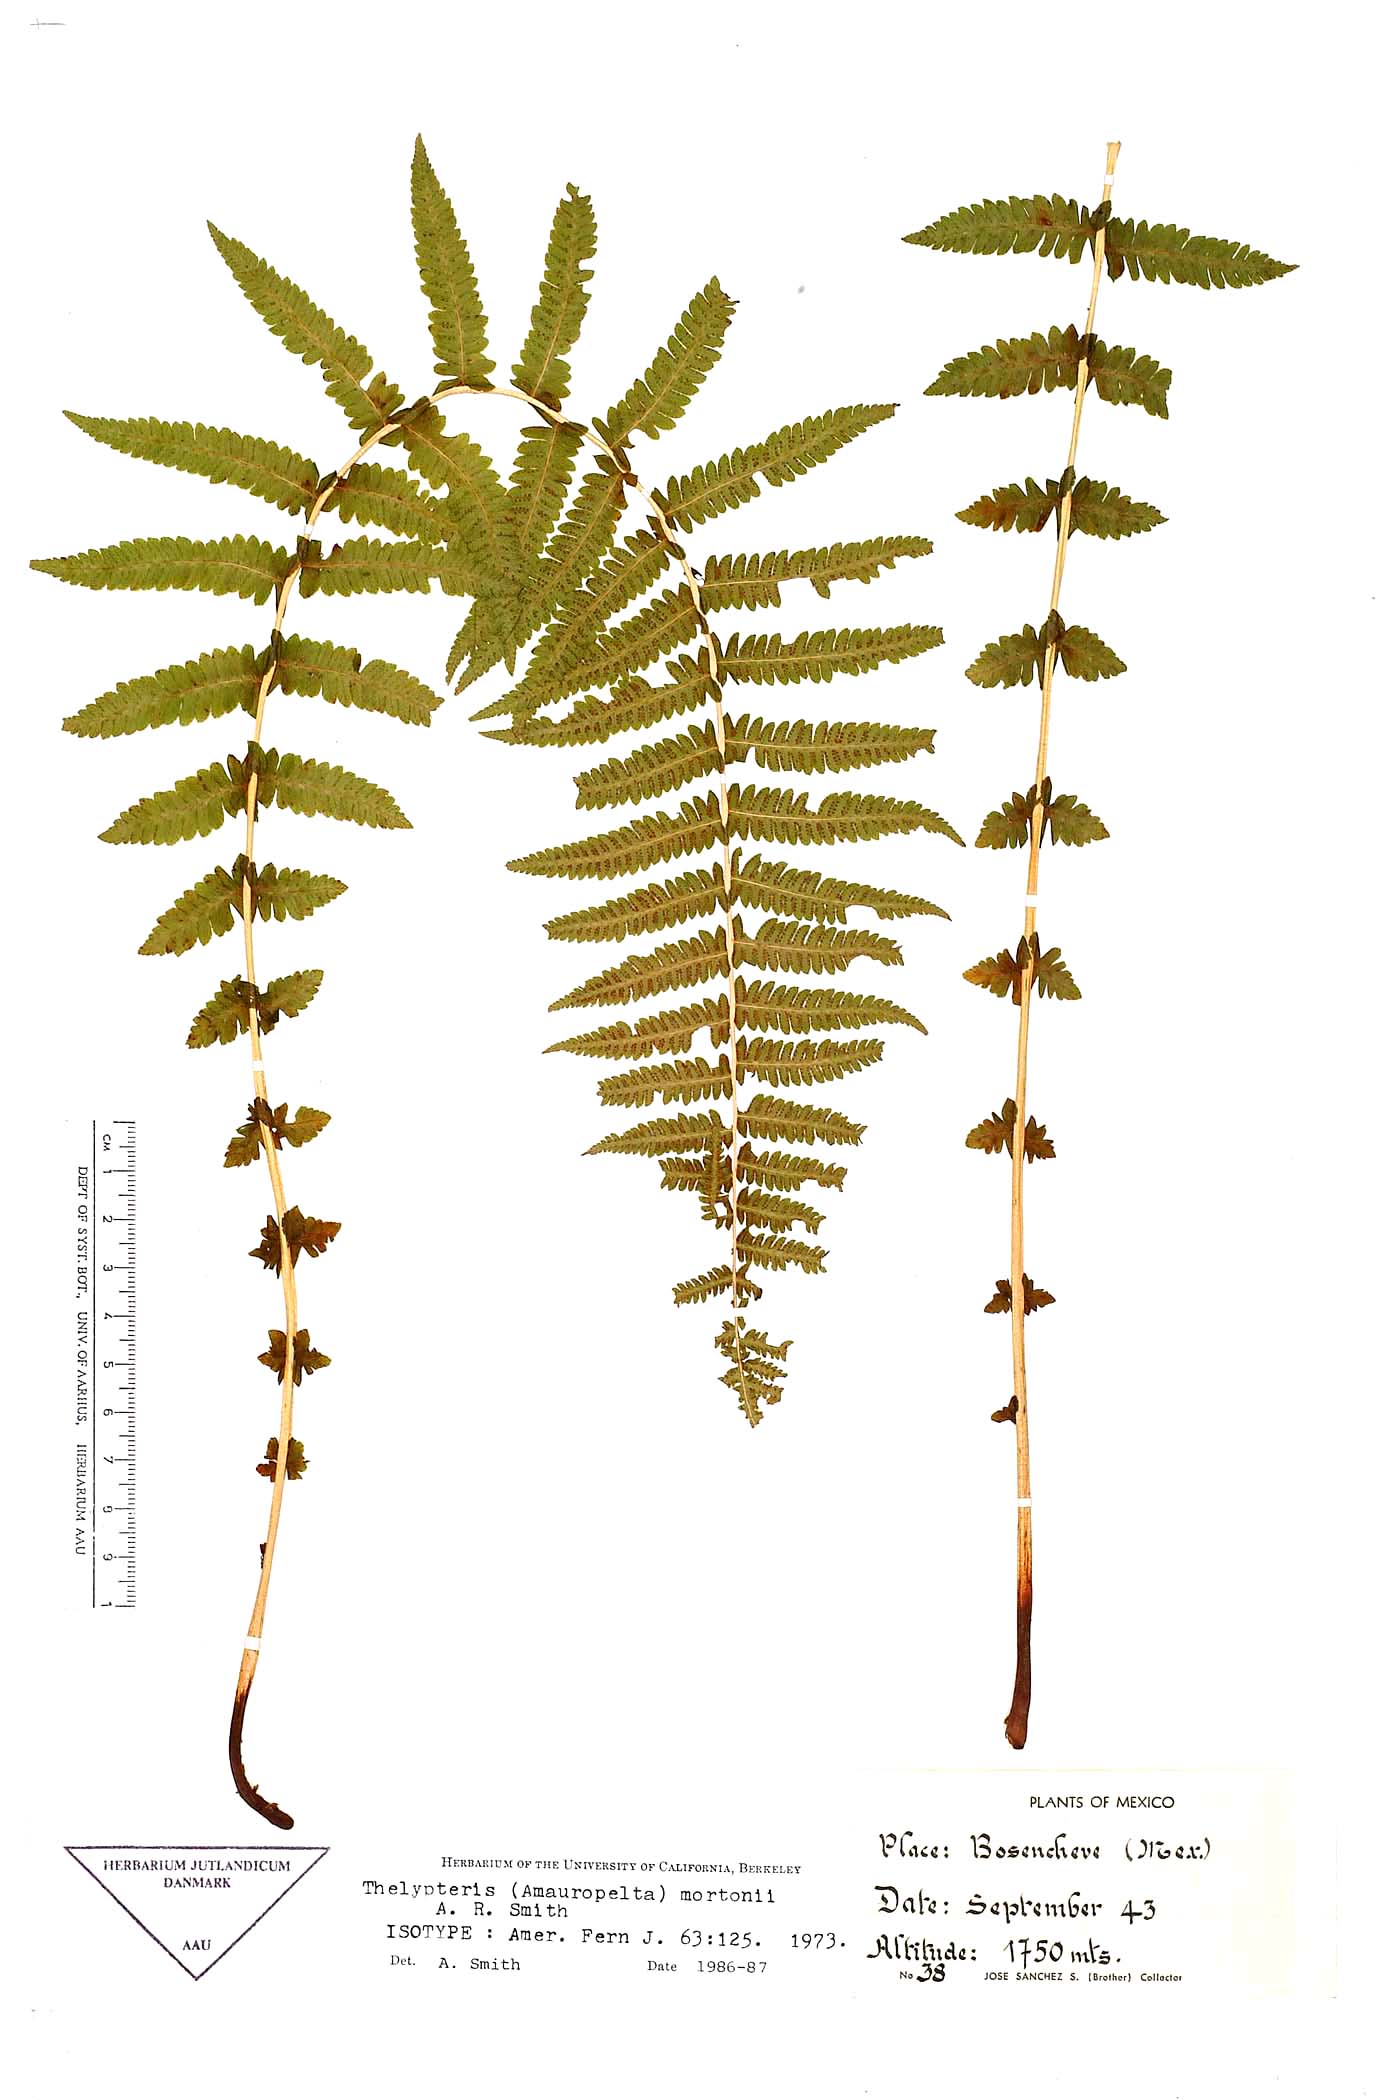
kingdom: Plantae
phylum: Tracheophyta
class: Polypodiopsida
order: Polypodiales
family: Thelypteridaceae
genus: Amauropelta
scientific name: Amauropelta mortonii
